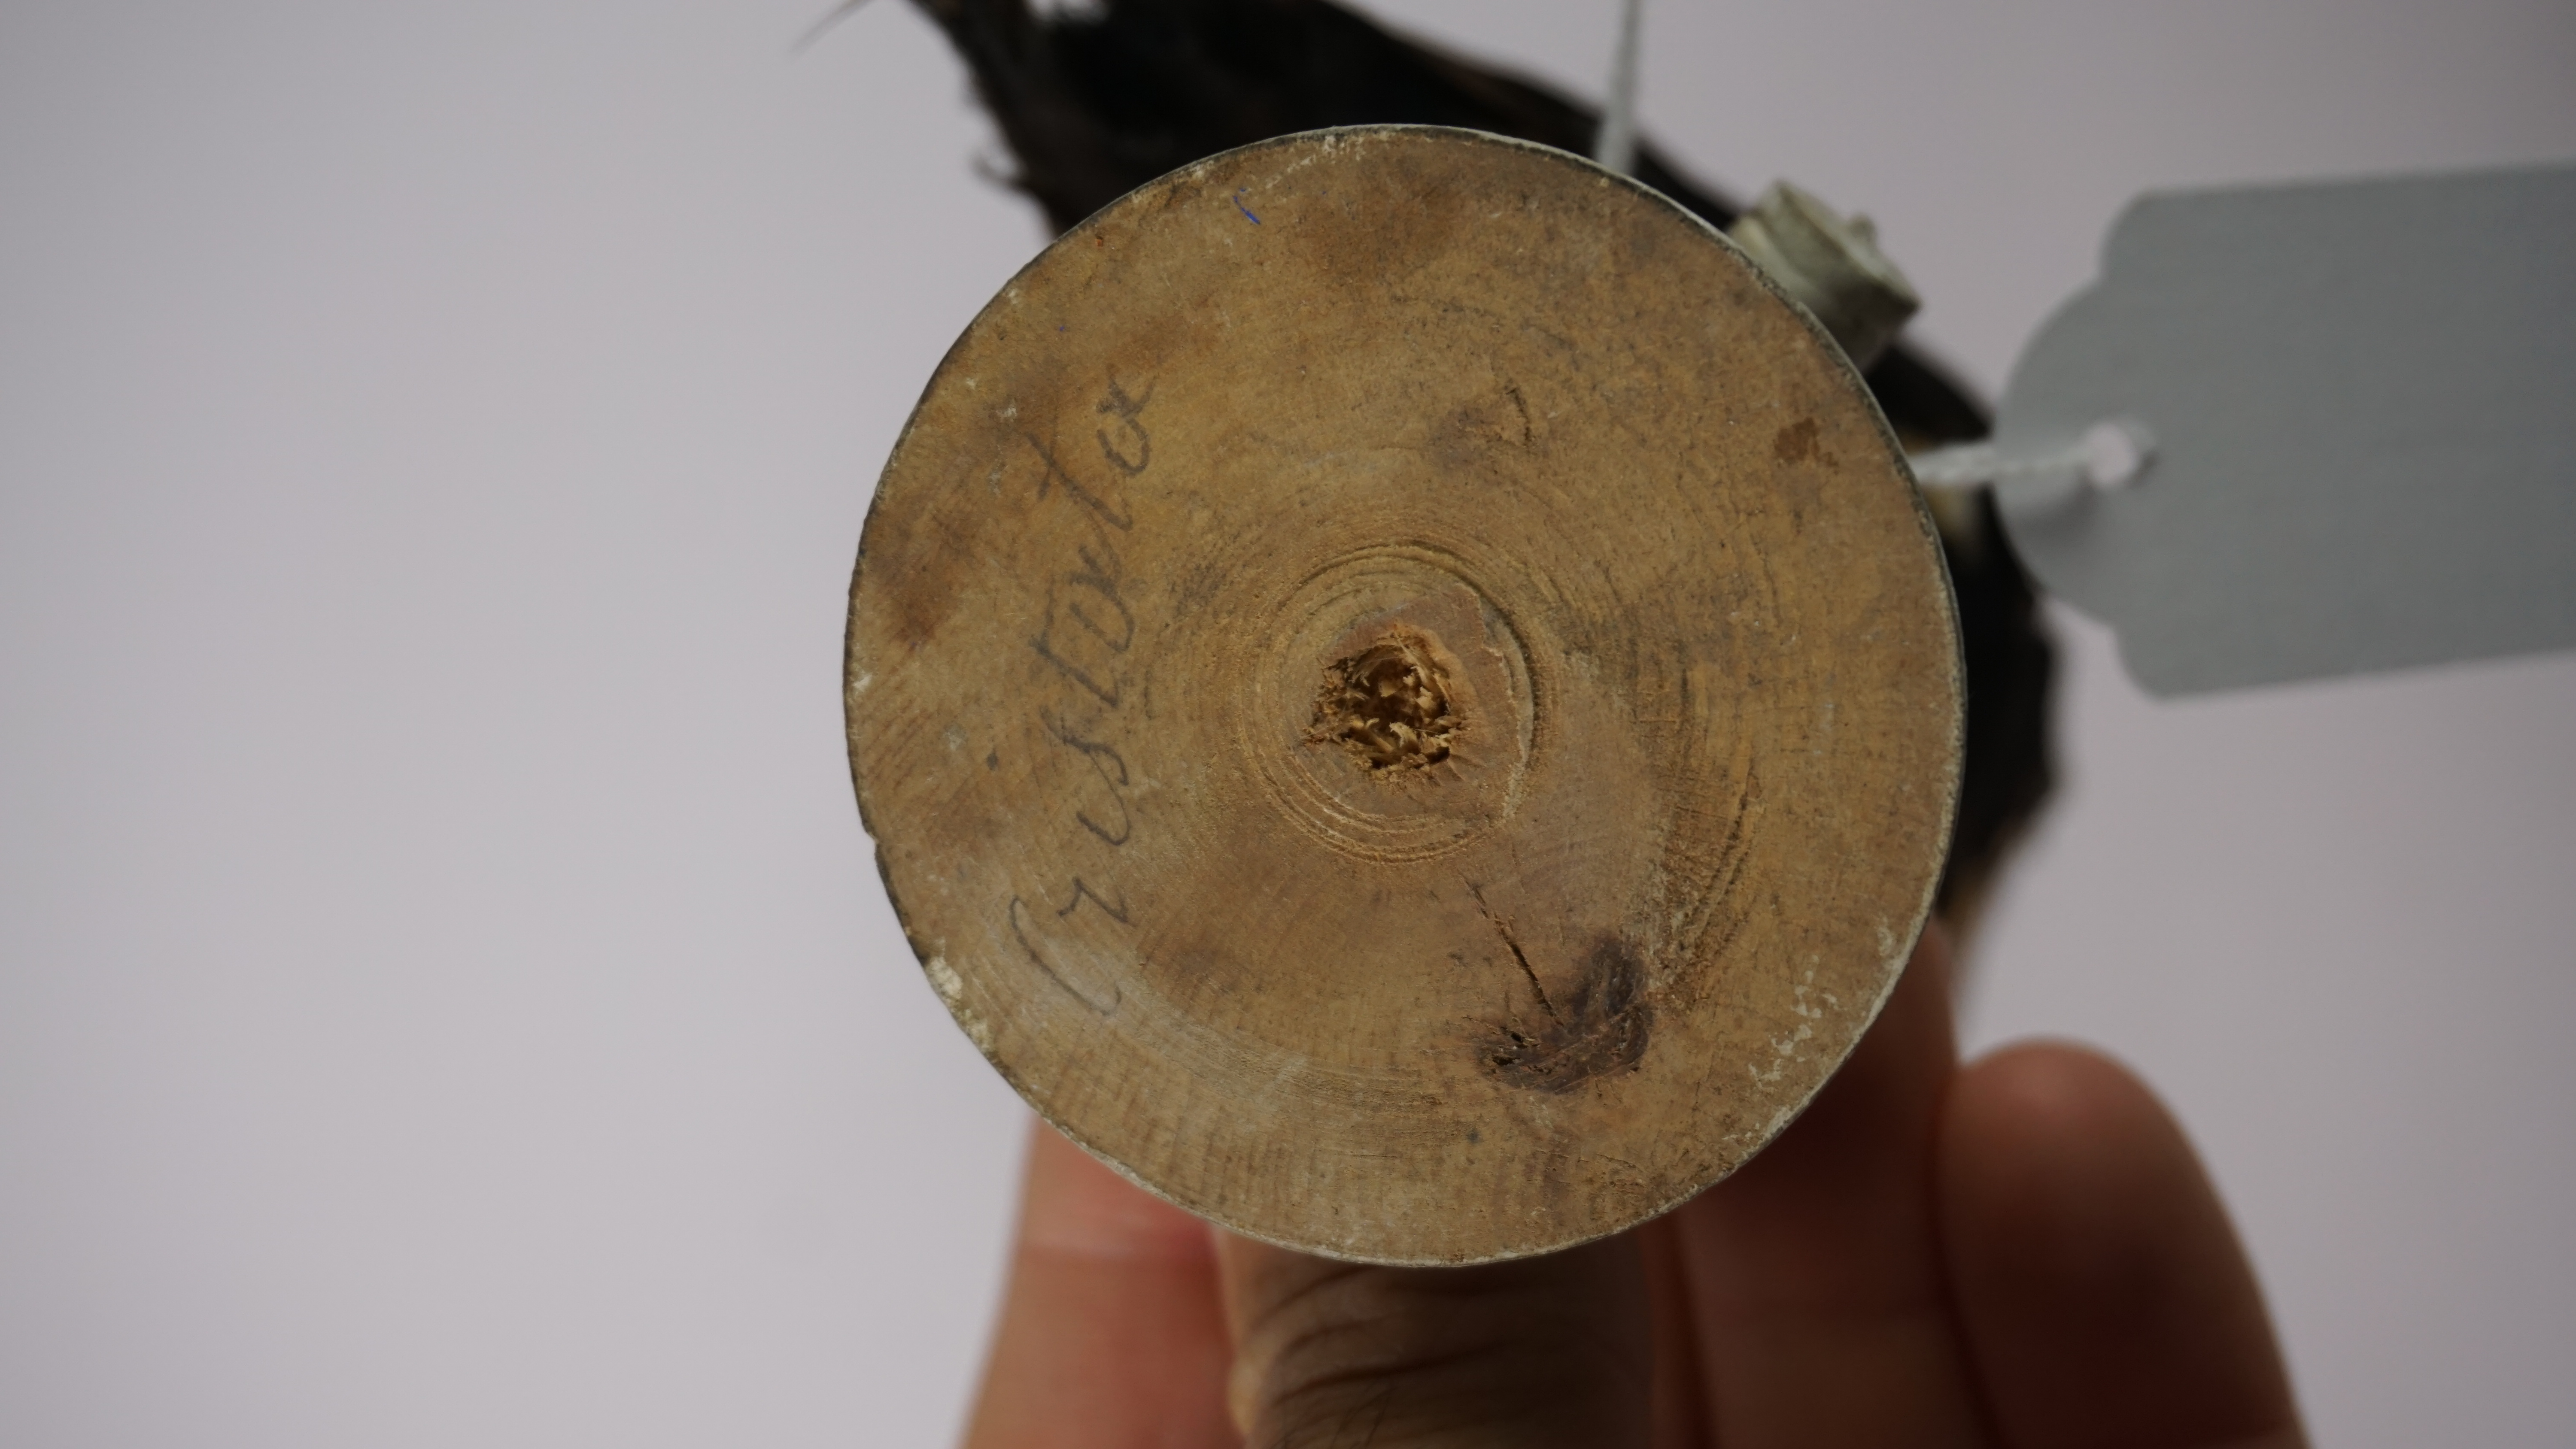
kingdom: Animalia
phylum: Chordata
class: Aves
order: Passeriformes
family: Thraupidae
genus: Tachyphonus
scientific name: Tachyphonus surinamus
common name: Fulvous-crested tanager
